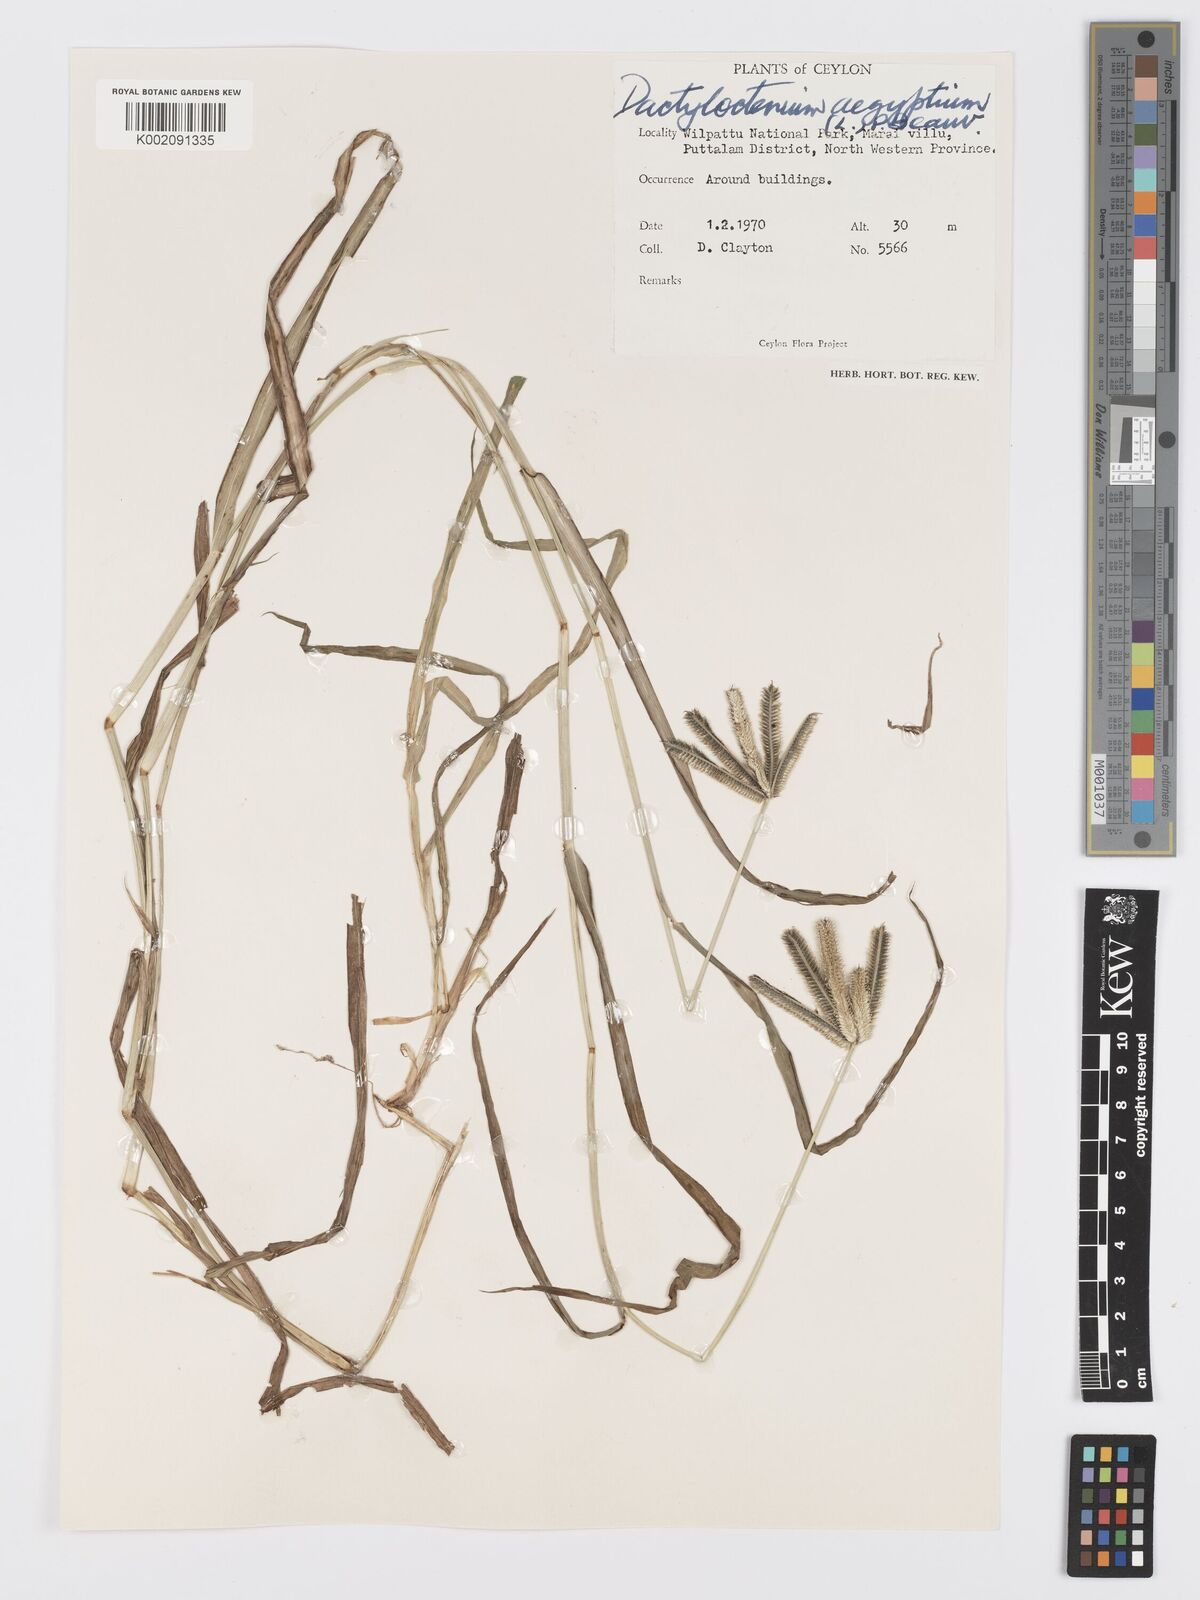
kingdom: Plantae
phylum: Tracheophyta
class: Liliopsida
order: Poales
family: Poaceae
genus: Dactyloctenium
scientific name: Dactyloctenium aegyptium
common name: Egyptian grass
